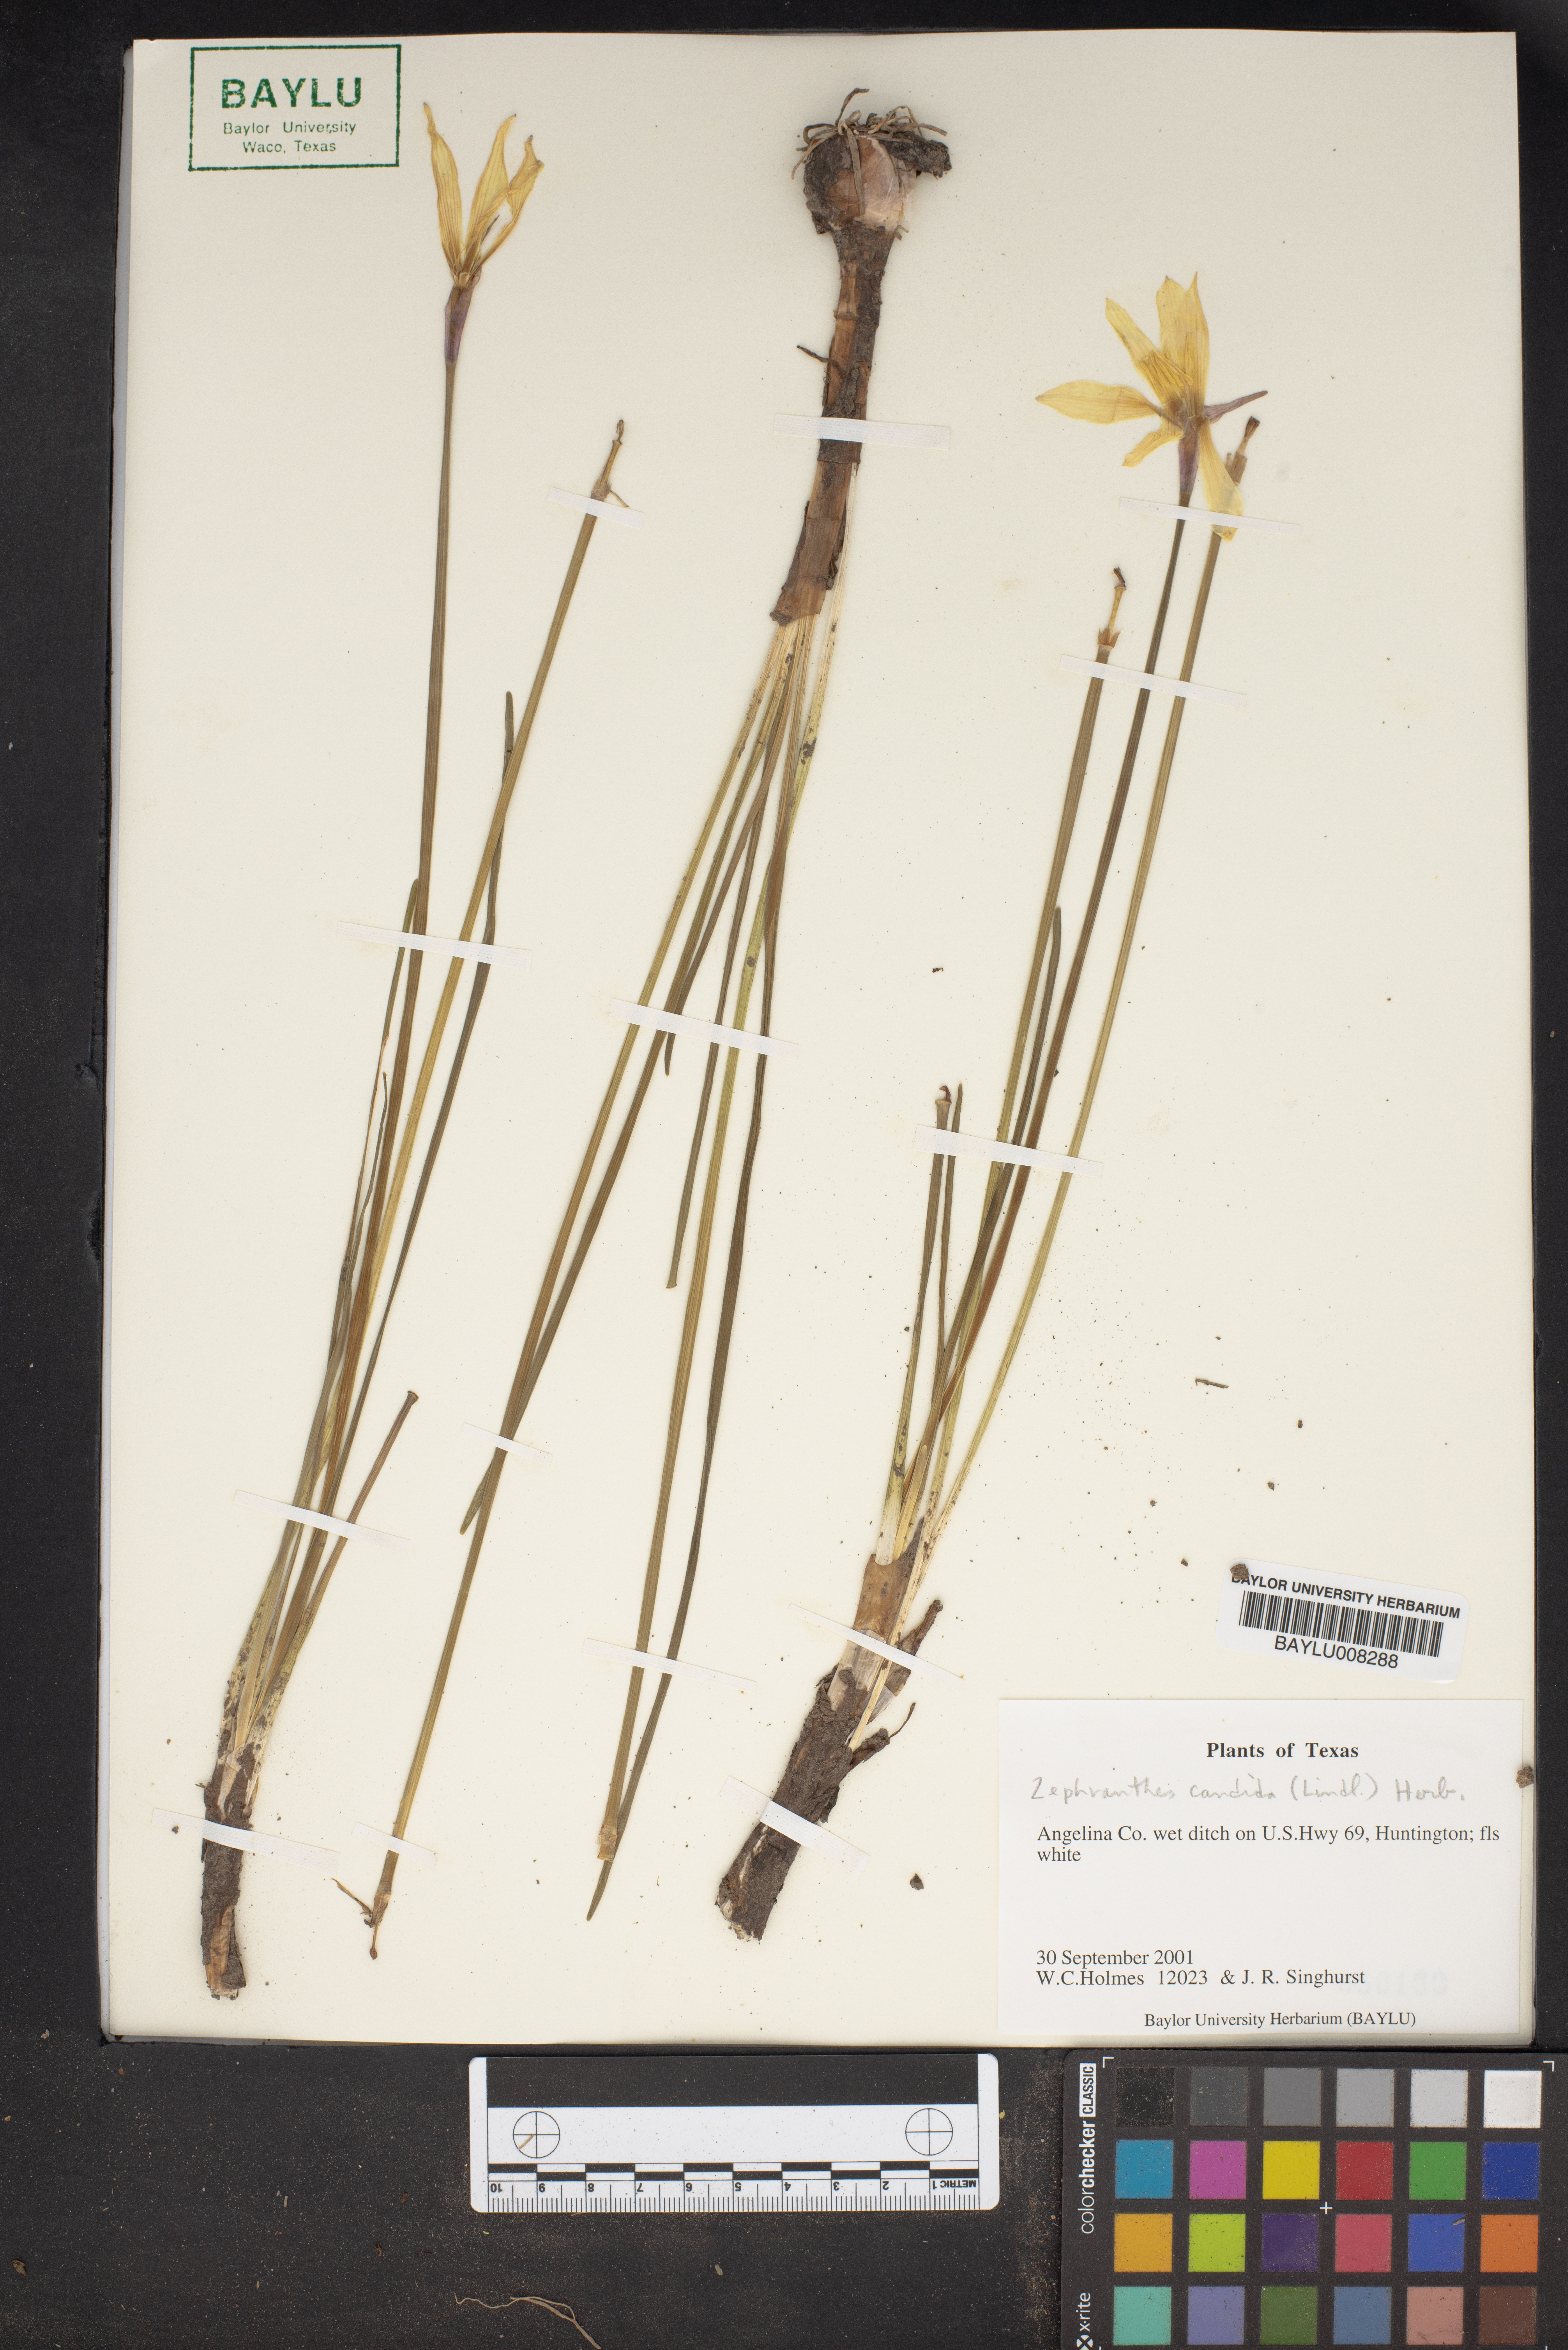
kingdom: Plantae
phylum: Tracheophyta
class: Liliopsida
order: Asparagales
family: Amaryllidaceae
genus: Zephyranthes
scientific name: Zephyranthes candida
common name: Autumn zephyrlily
